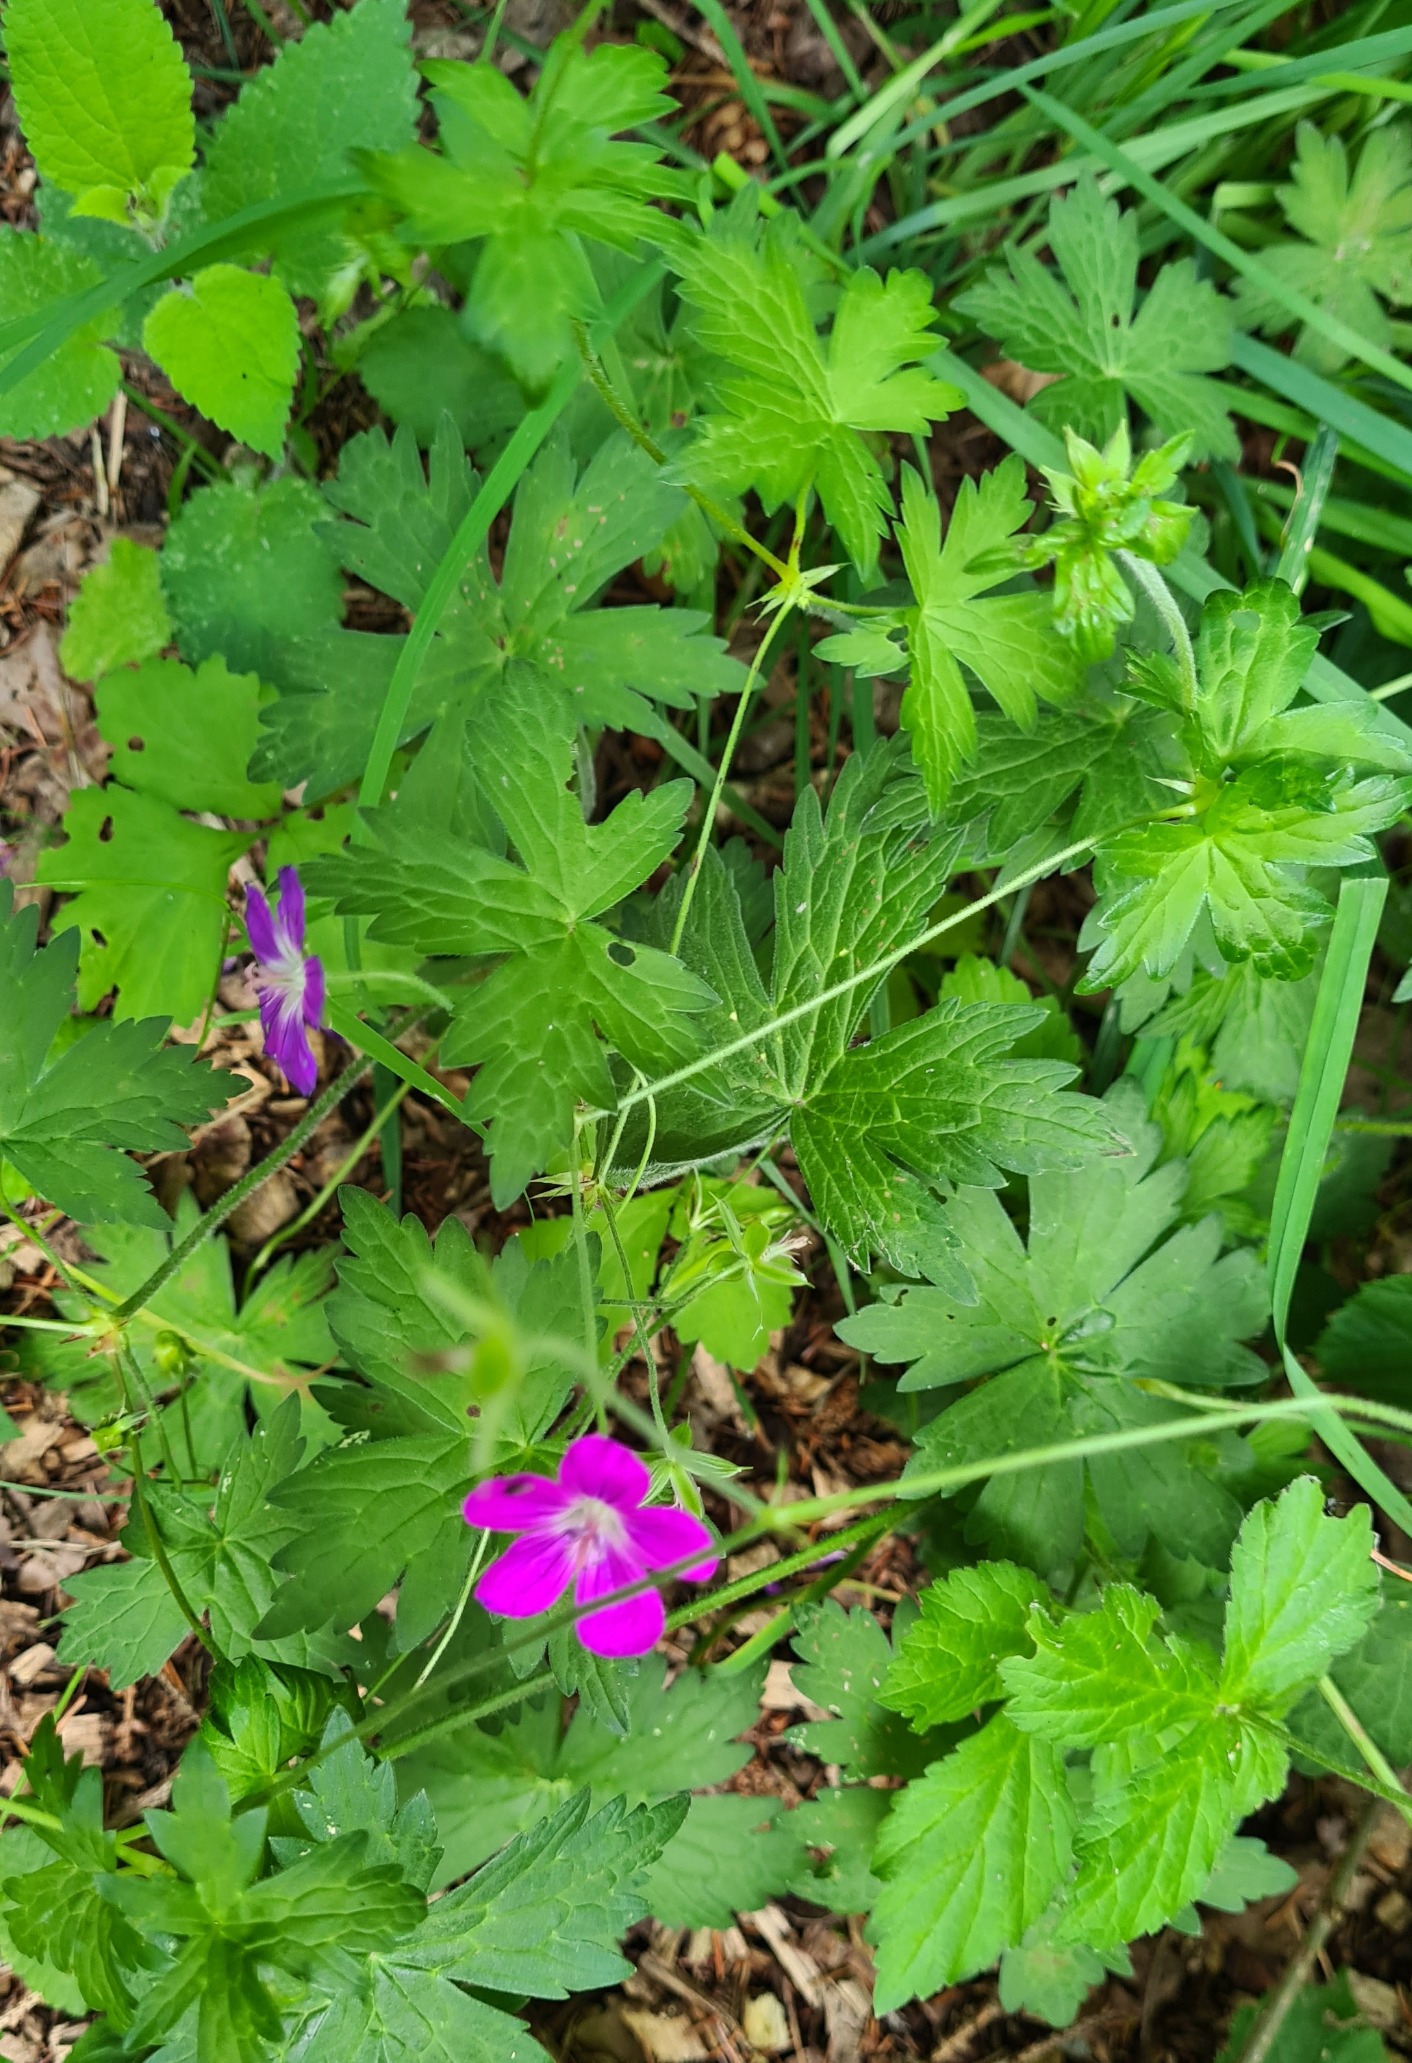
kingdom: Plantae
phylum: Tracheophyta
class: Magnoliopsida
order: Geraniales
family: Geraniaceae
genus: Geranium
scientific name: Geranium palustre
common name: Kær-storkenæb
